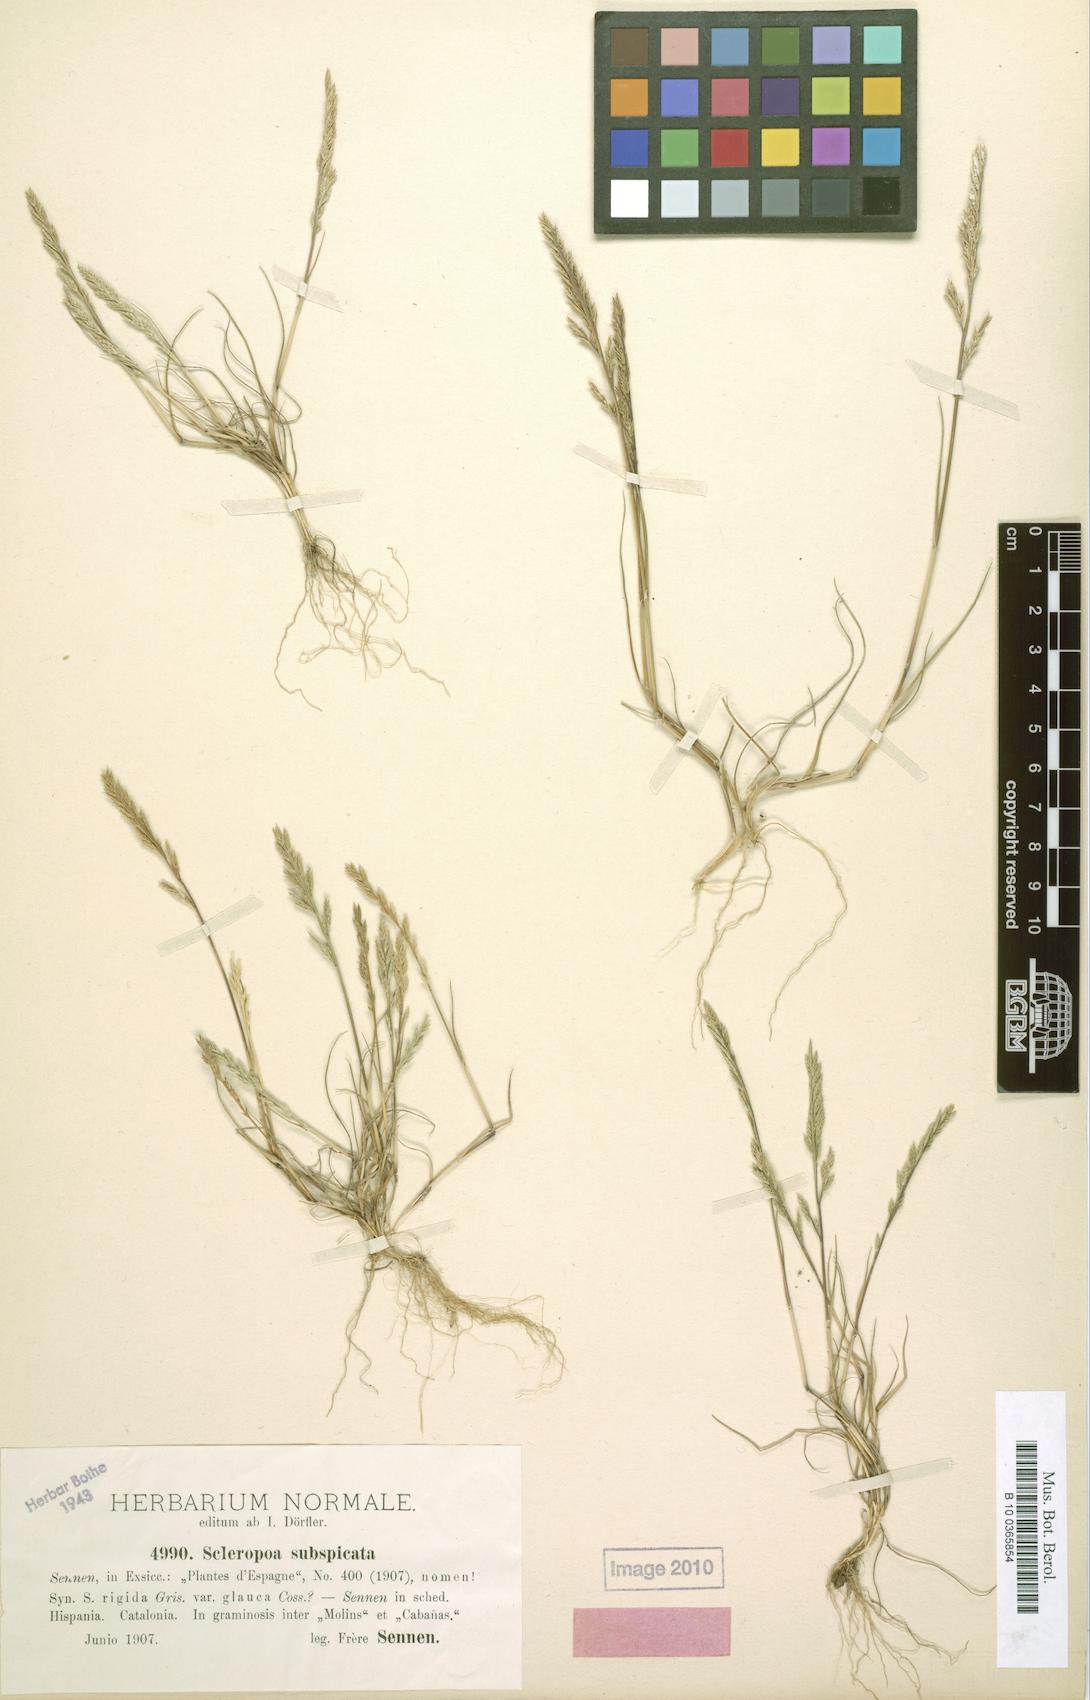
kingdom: Plantae
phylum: Tracheophyta
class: Liliopsida
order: Poales
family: Poaceae
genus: Catapodium
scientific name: Catapodium rigidum
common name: Fern-grass
